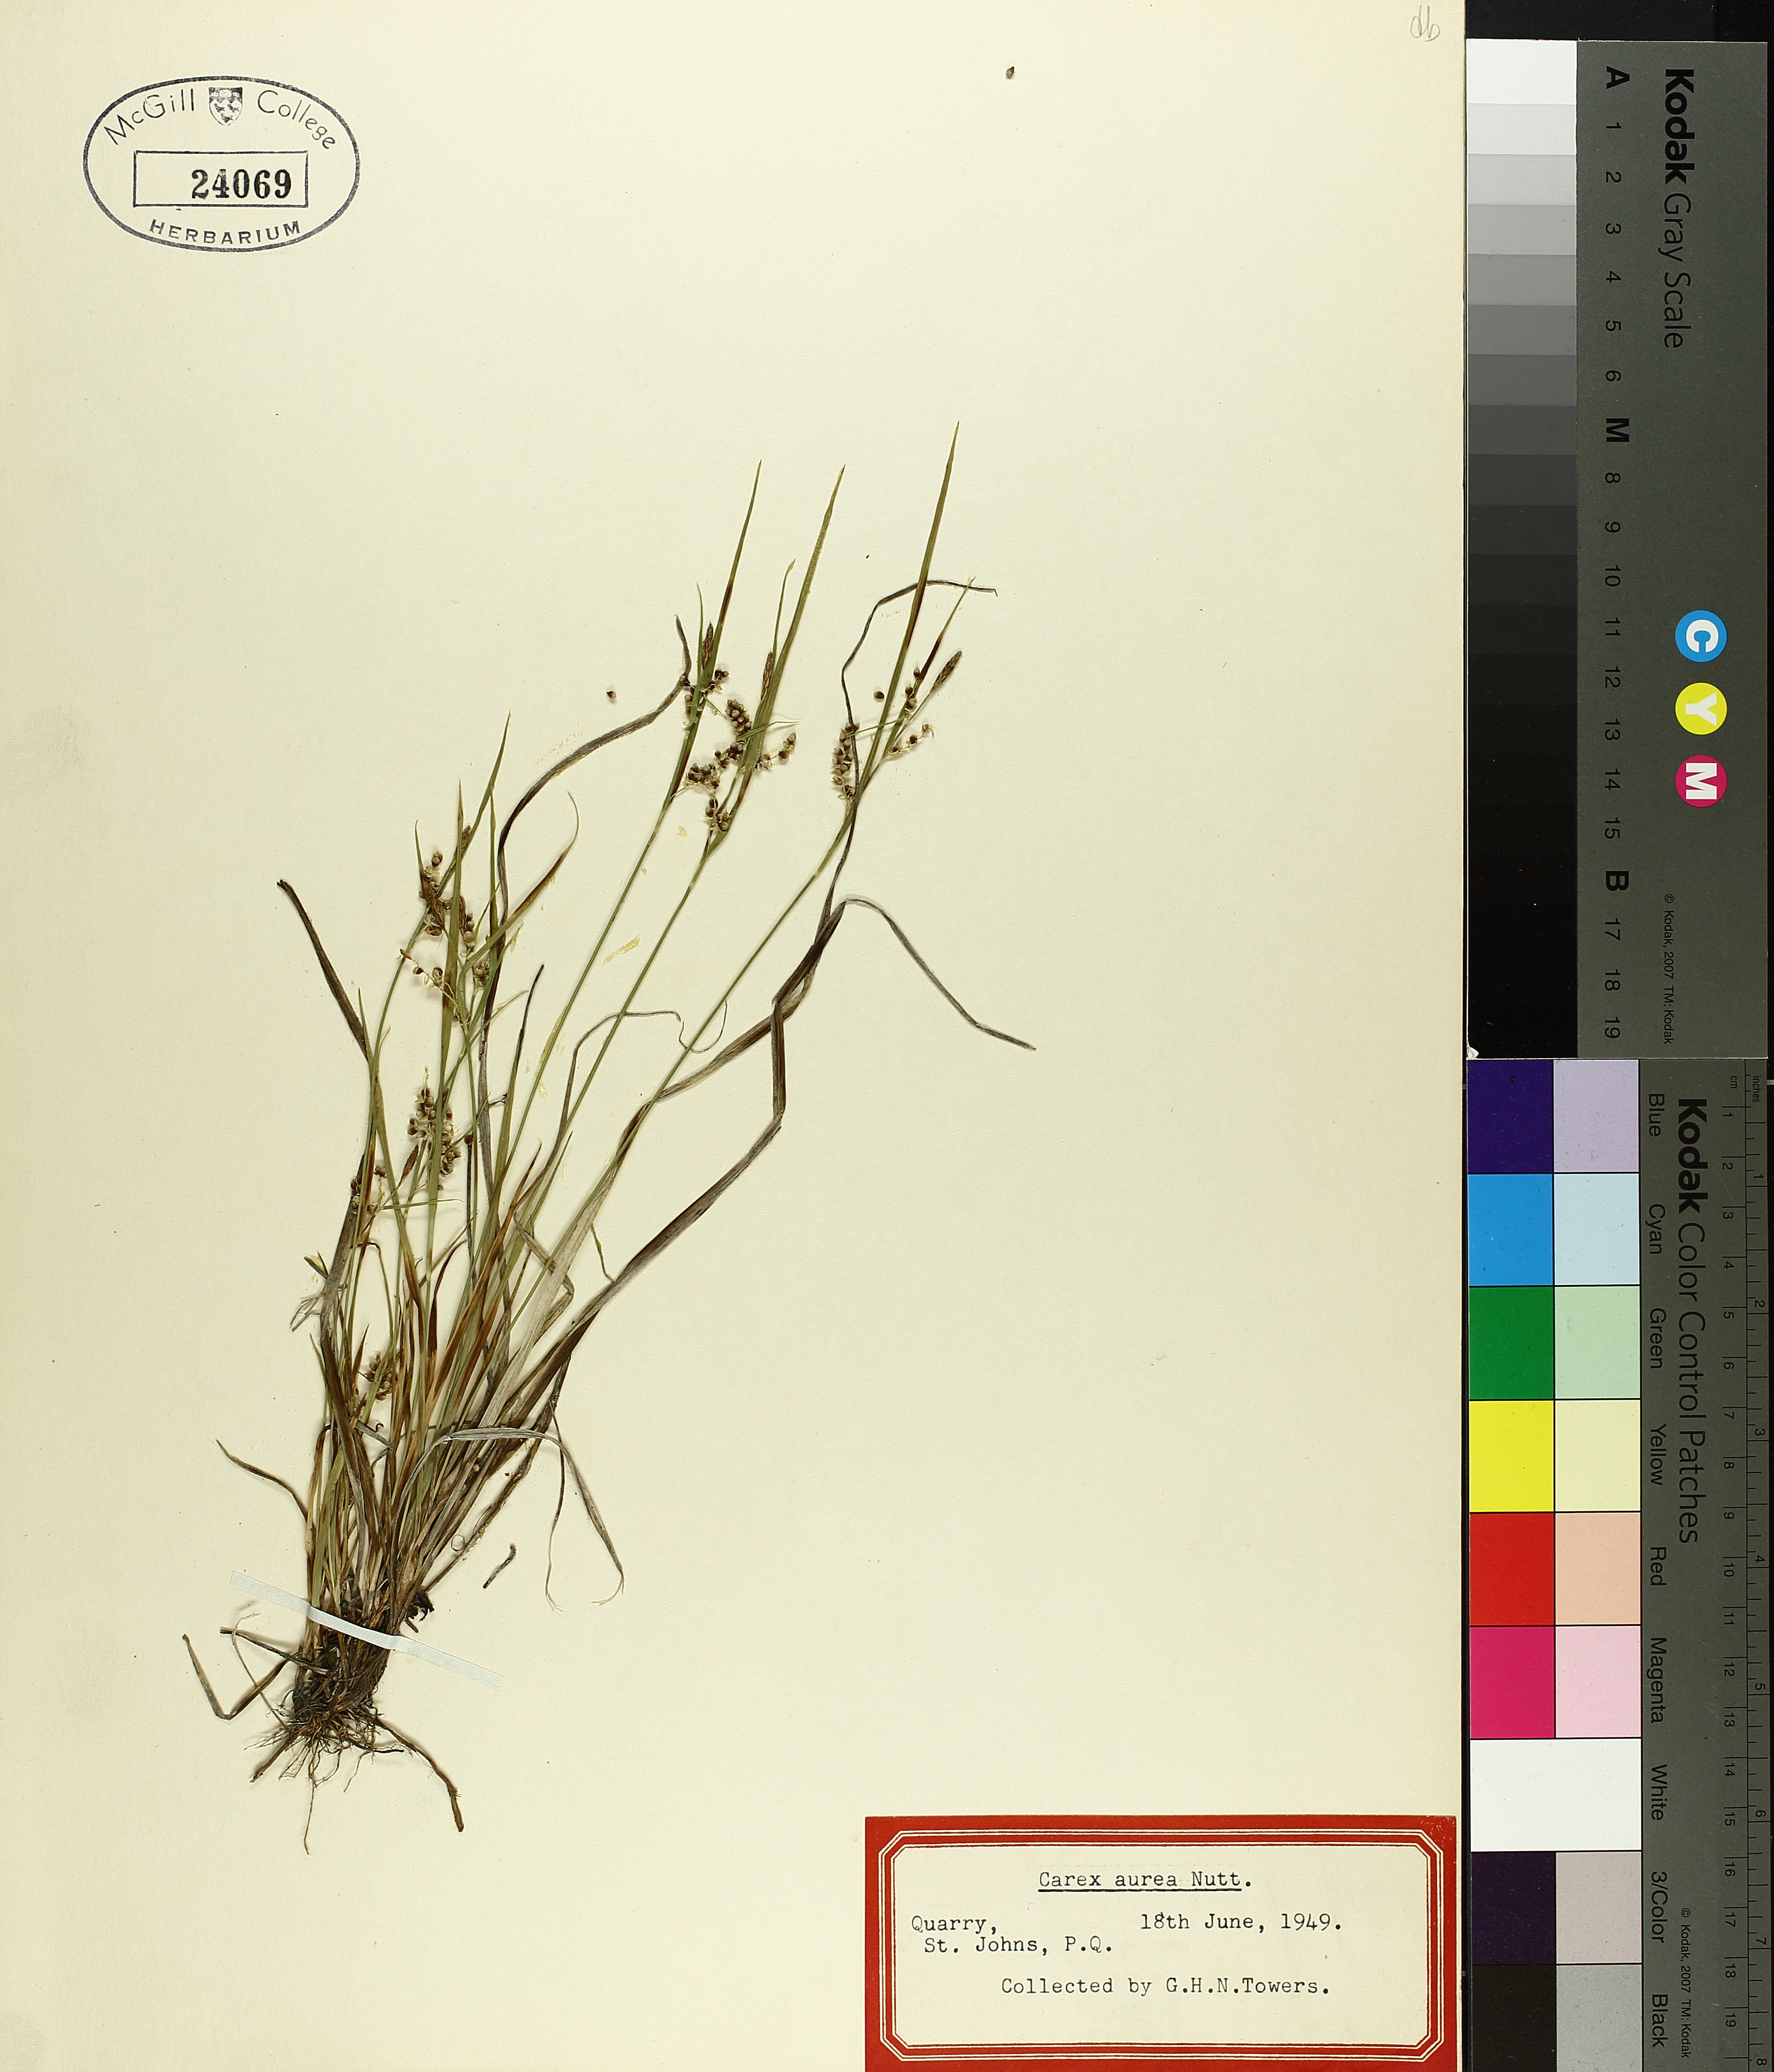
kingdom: Plantae
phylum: Tracheophyta
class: Liliopsida
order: Poales
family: Cyperaceae
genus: Carex
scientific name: Carex aurea
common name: Golden sedge
